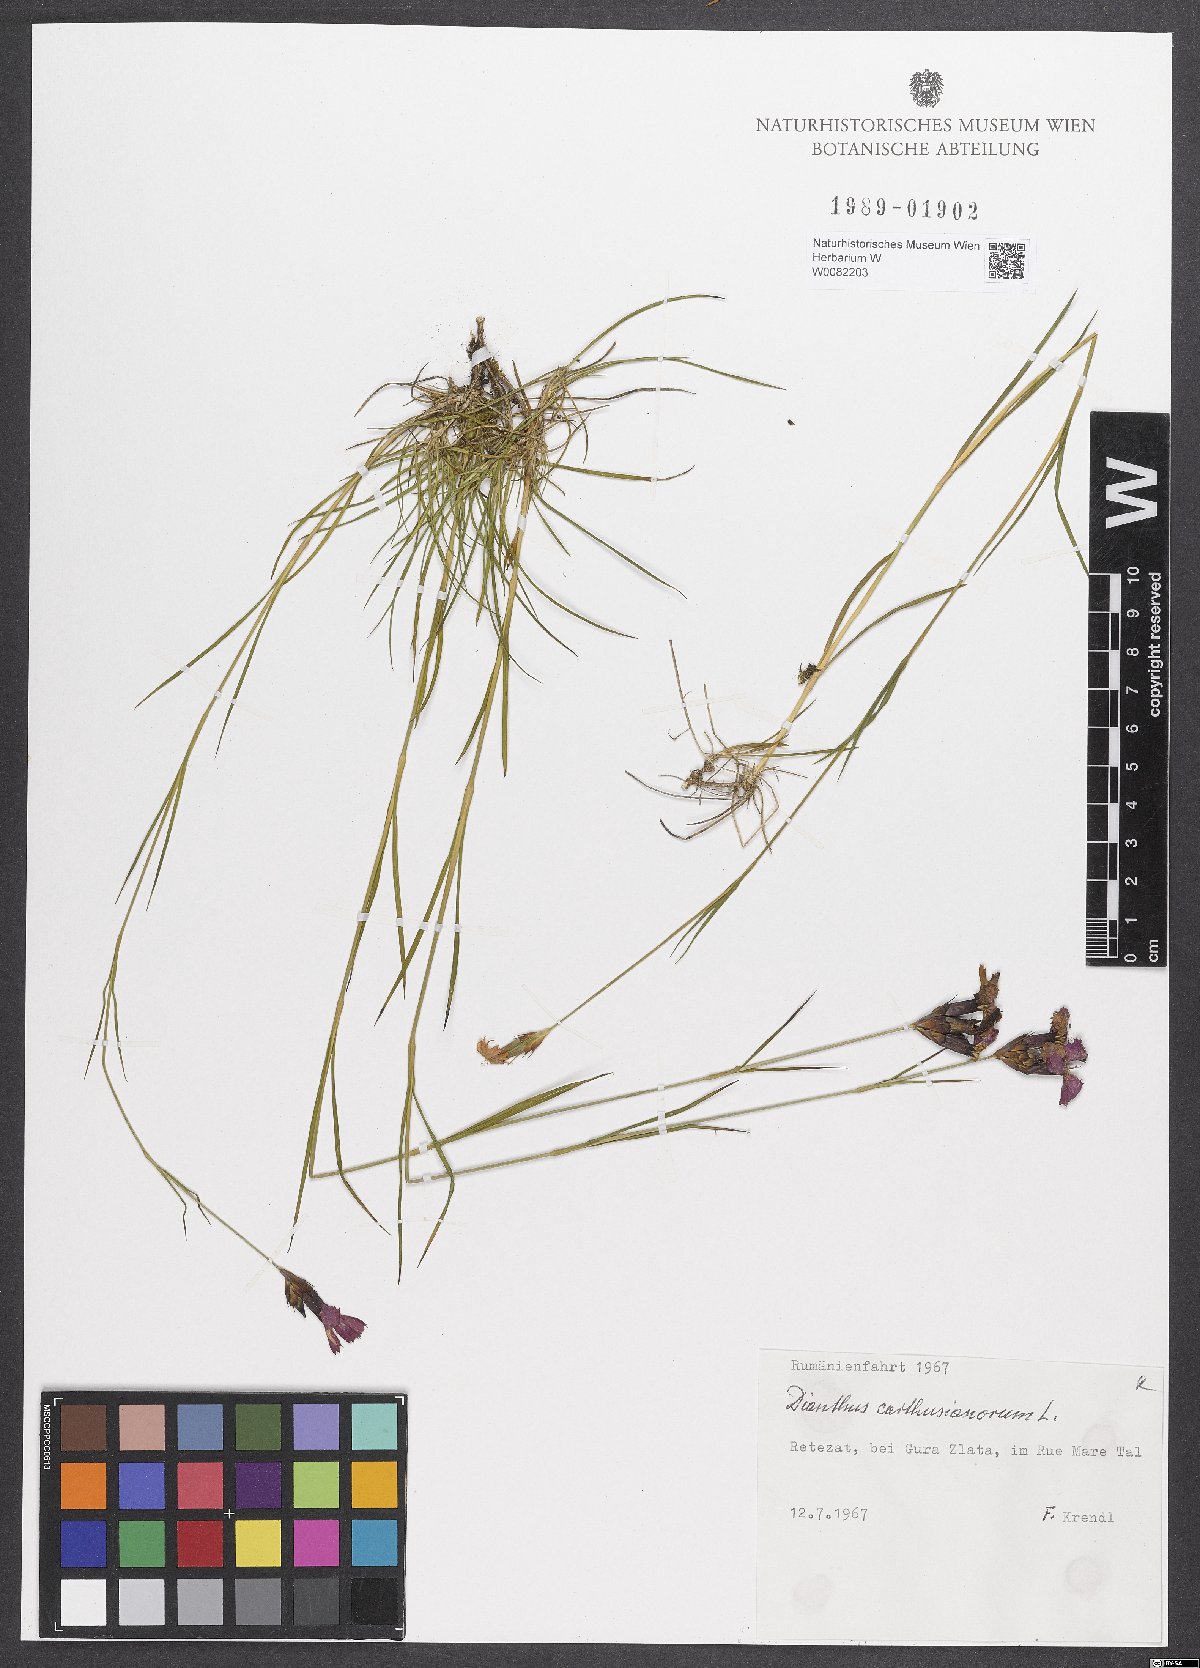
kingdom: Plantae
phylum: Tracheophyta
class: Magnoliopsida
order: Caryophyllales
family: Caryophyllaceae
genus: Dianthus
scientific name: Dianthus carthusianorum
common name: Carthusian pink
